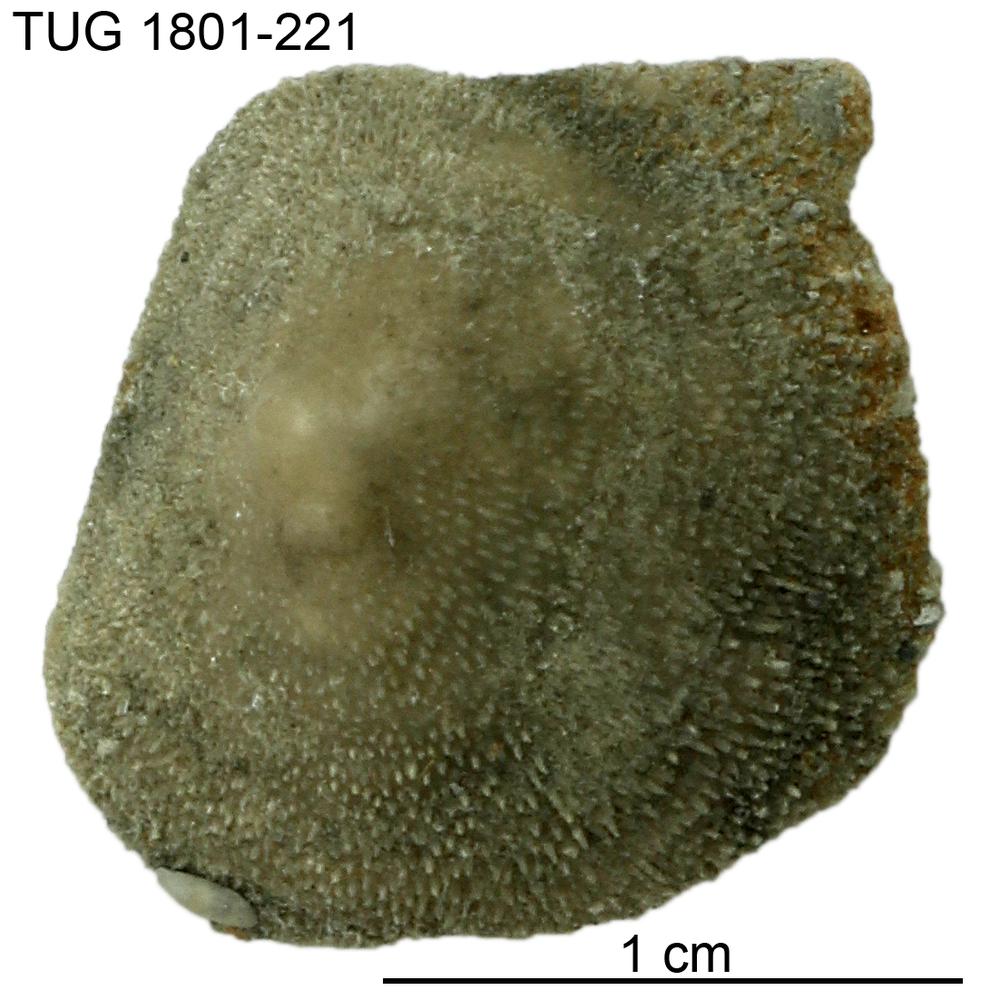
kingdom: Animalia
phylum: Brachiopoda
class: Craniata
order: Craniida
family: Craniidae
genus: Philhedra
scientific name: Philhedra
